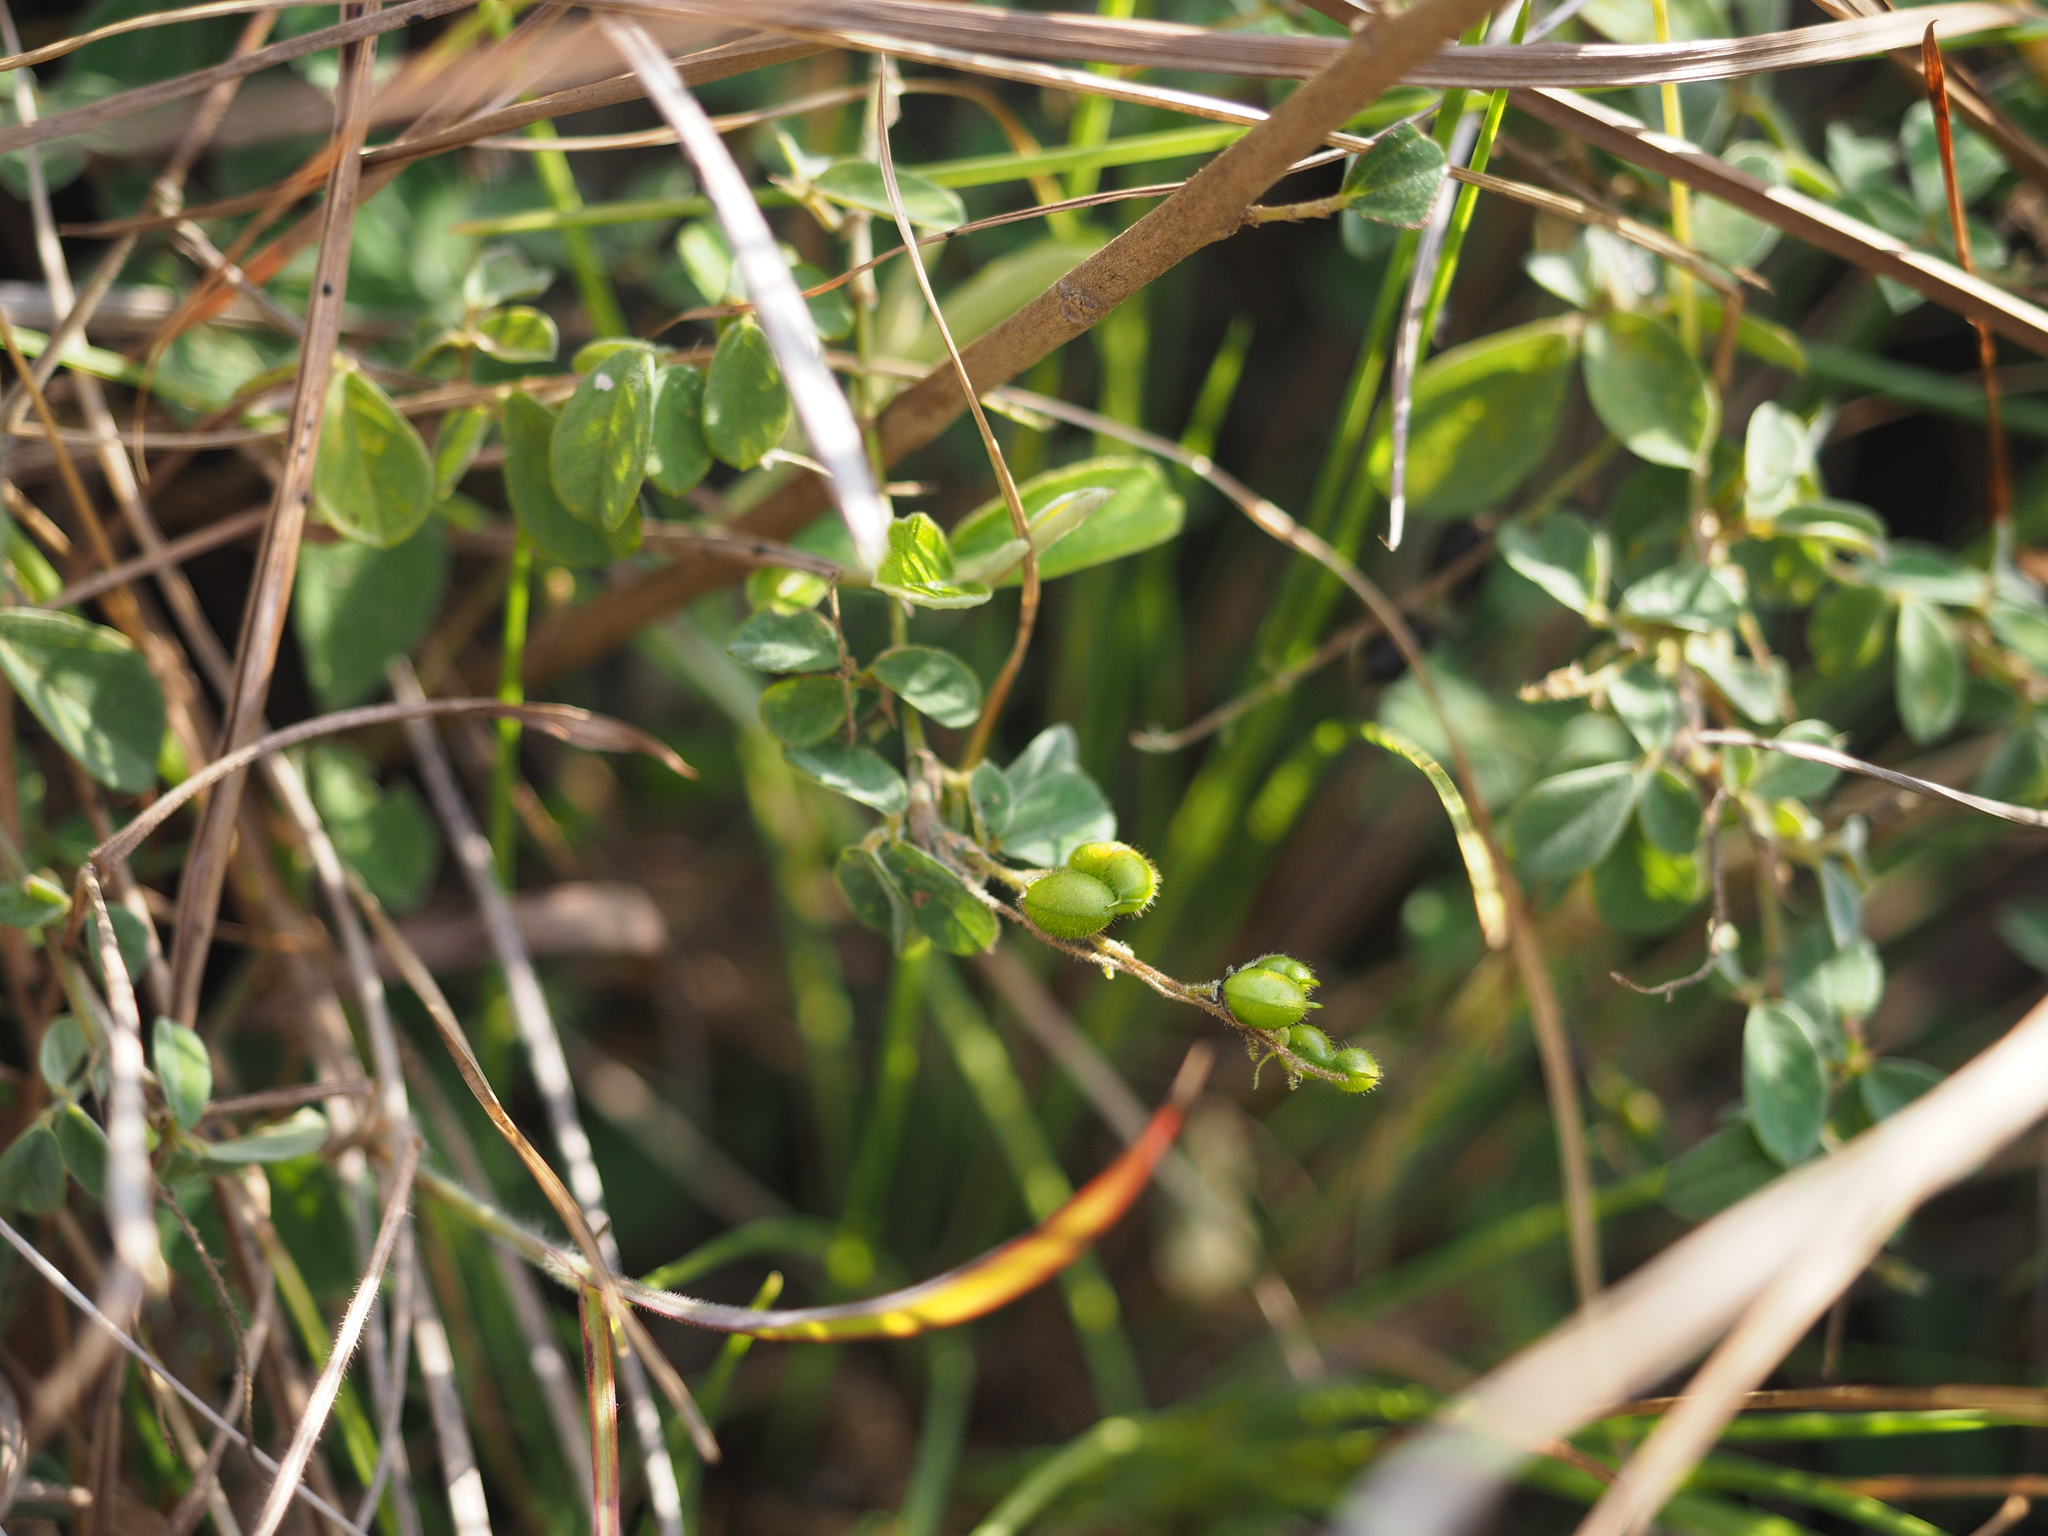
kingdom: Plantae
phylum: Tracheophyta
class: Magnoliopsida
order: Fabales
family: Fabaceae
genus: Pycnospora
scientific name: Pycnospora lutescens
